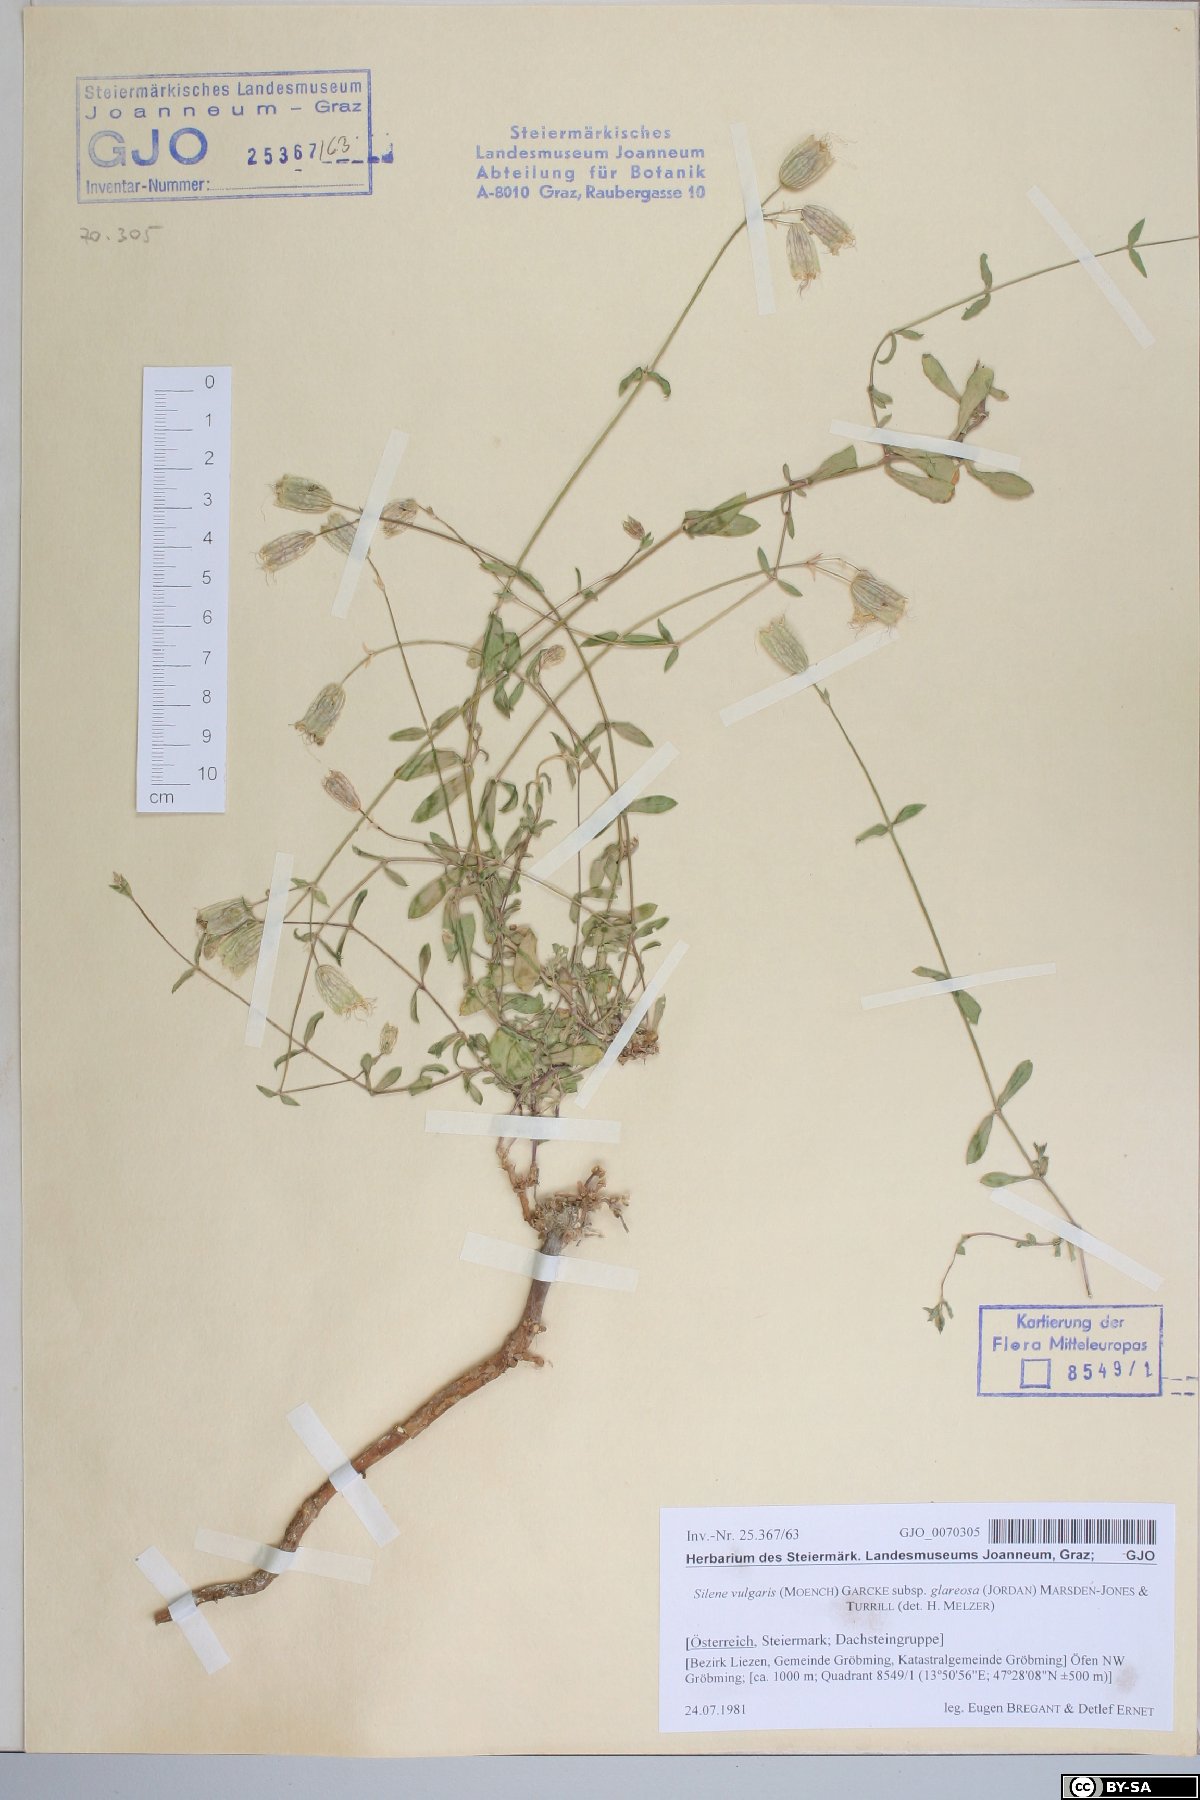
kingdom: Plantae
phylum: Tracheophyta
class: Magnoliopsida
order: Caryophyllales
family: Caryophyllaceae
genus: Silene
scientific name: Silene glareosa
